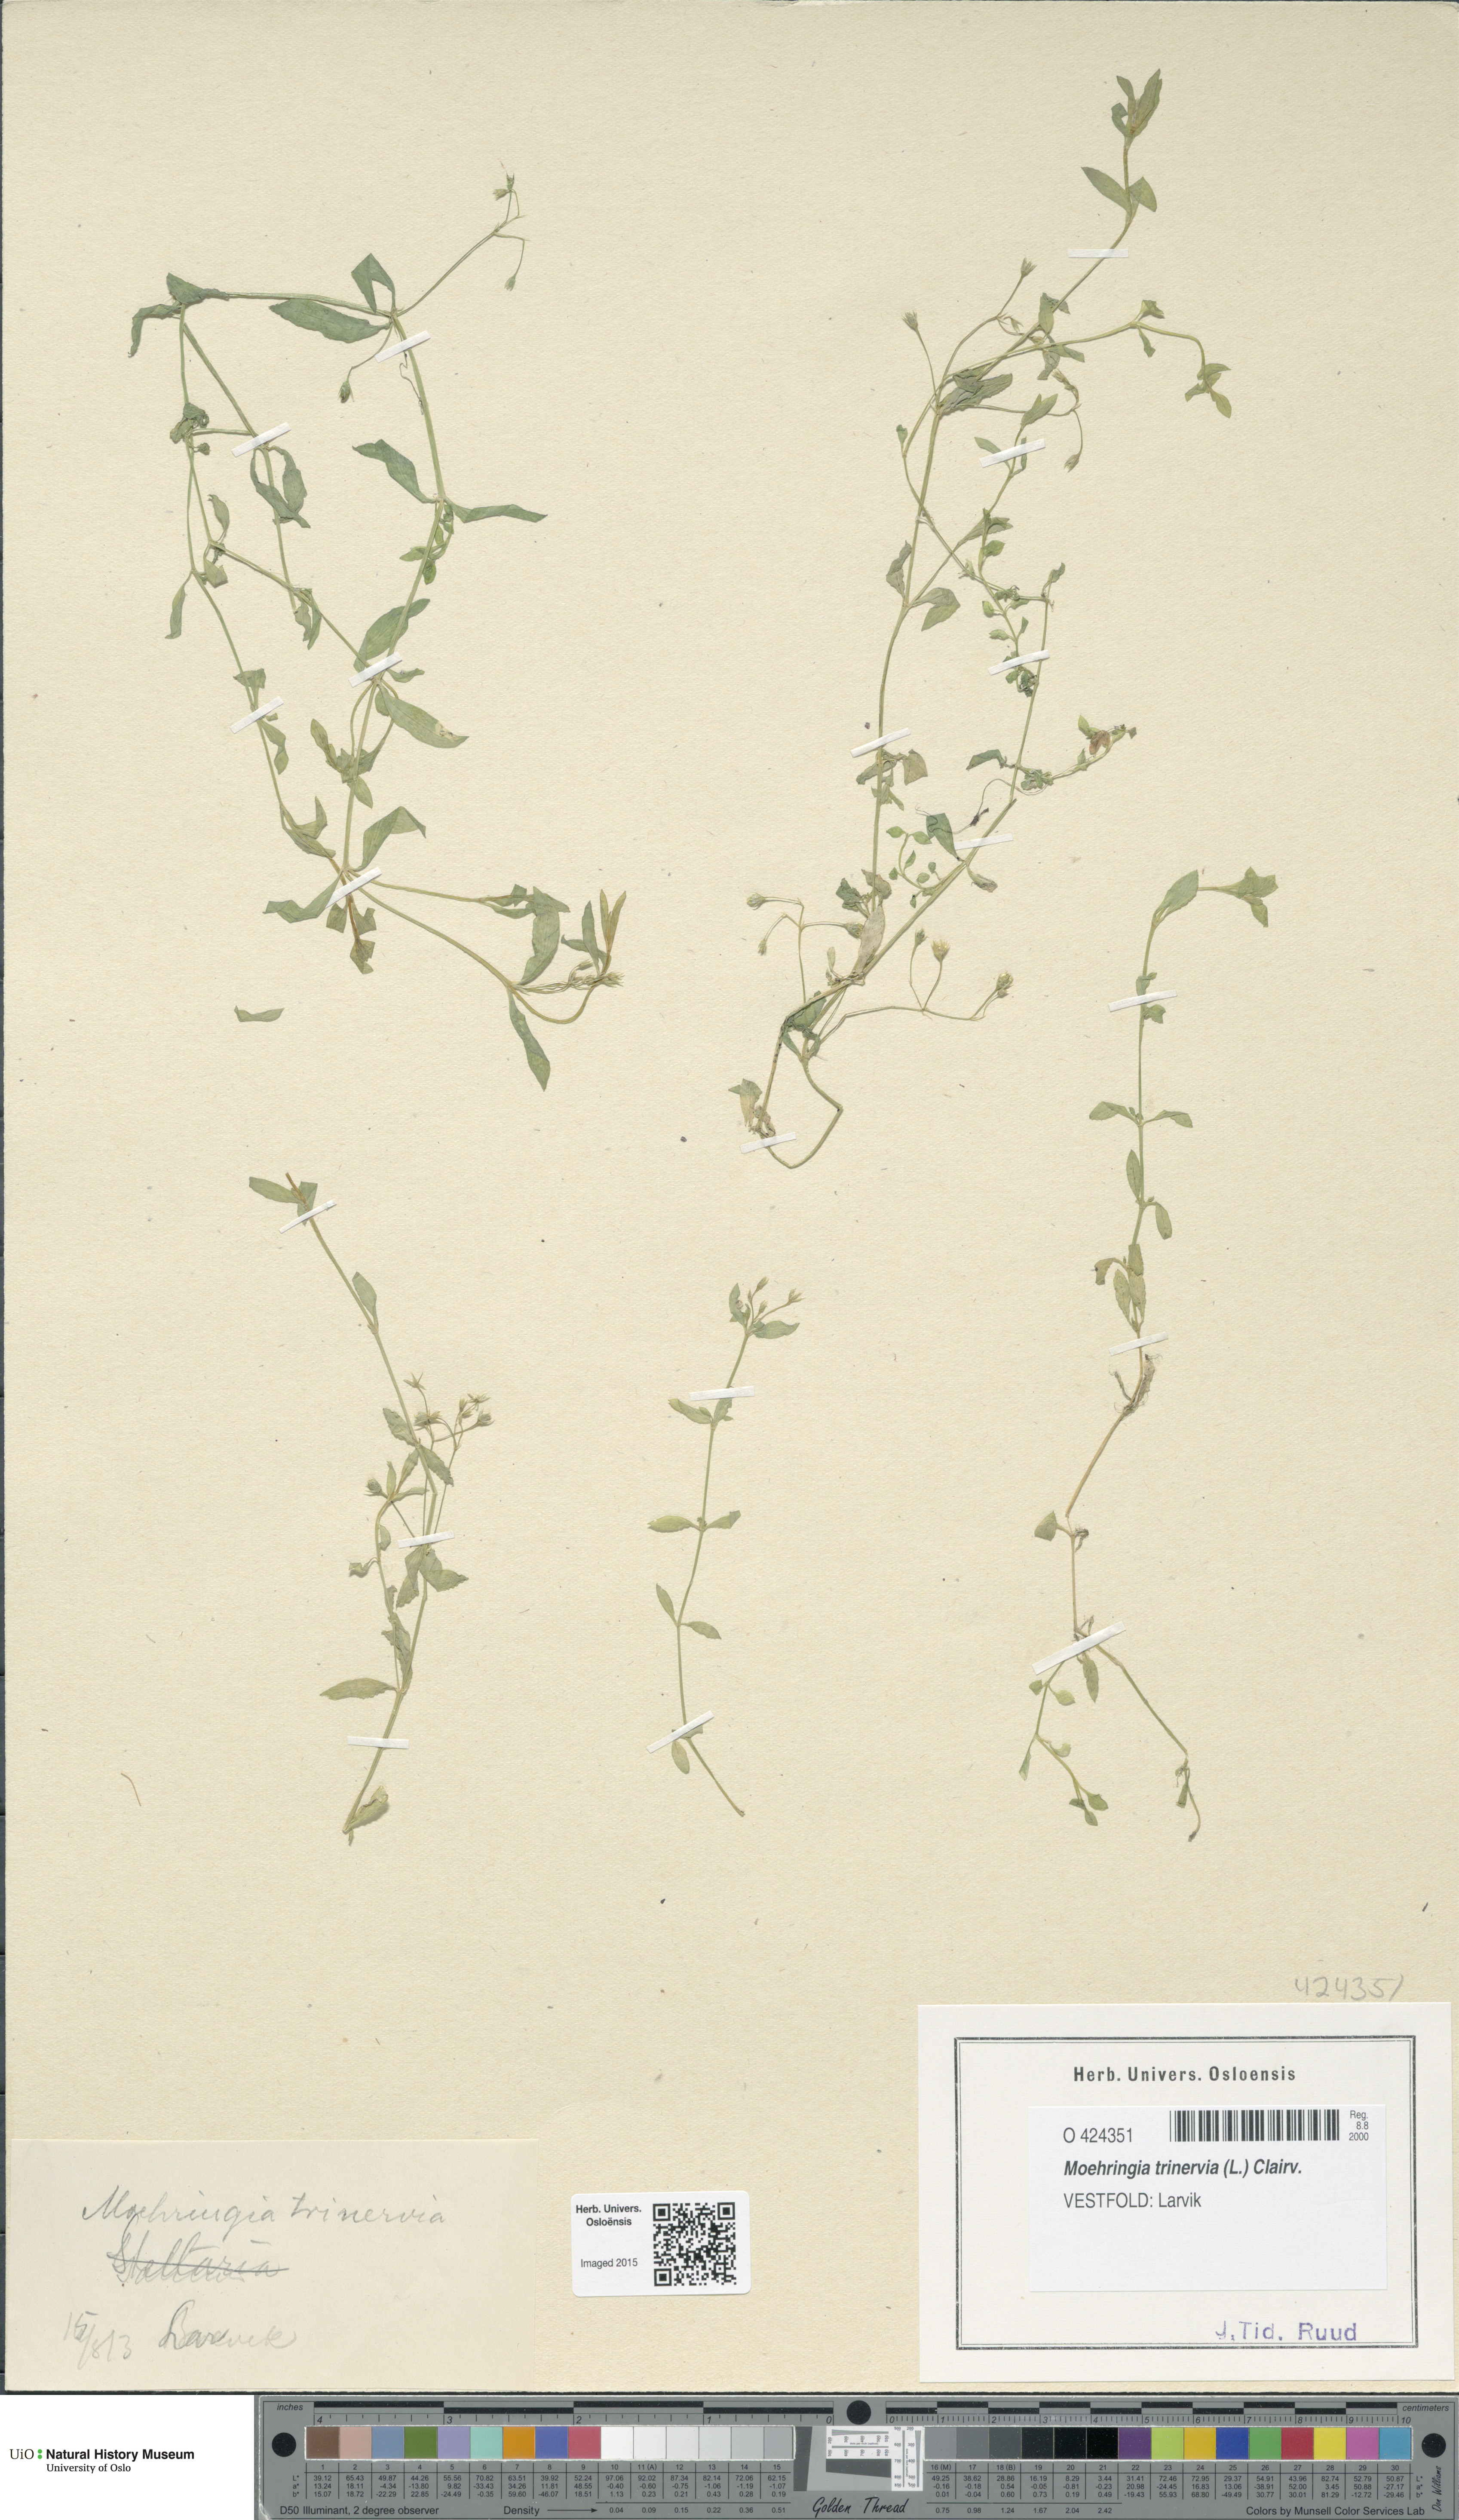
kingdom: Plantae
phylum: Tracheophyta
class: Magnoliopsida
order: Caryophyllales
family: Caryophyllaceae
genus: Moehringia
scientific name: Moehringia trinervia
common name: Three-nerved sandwort
